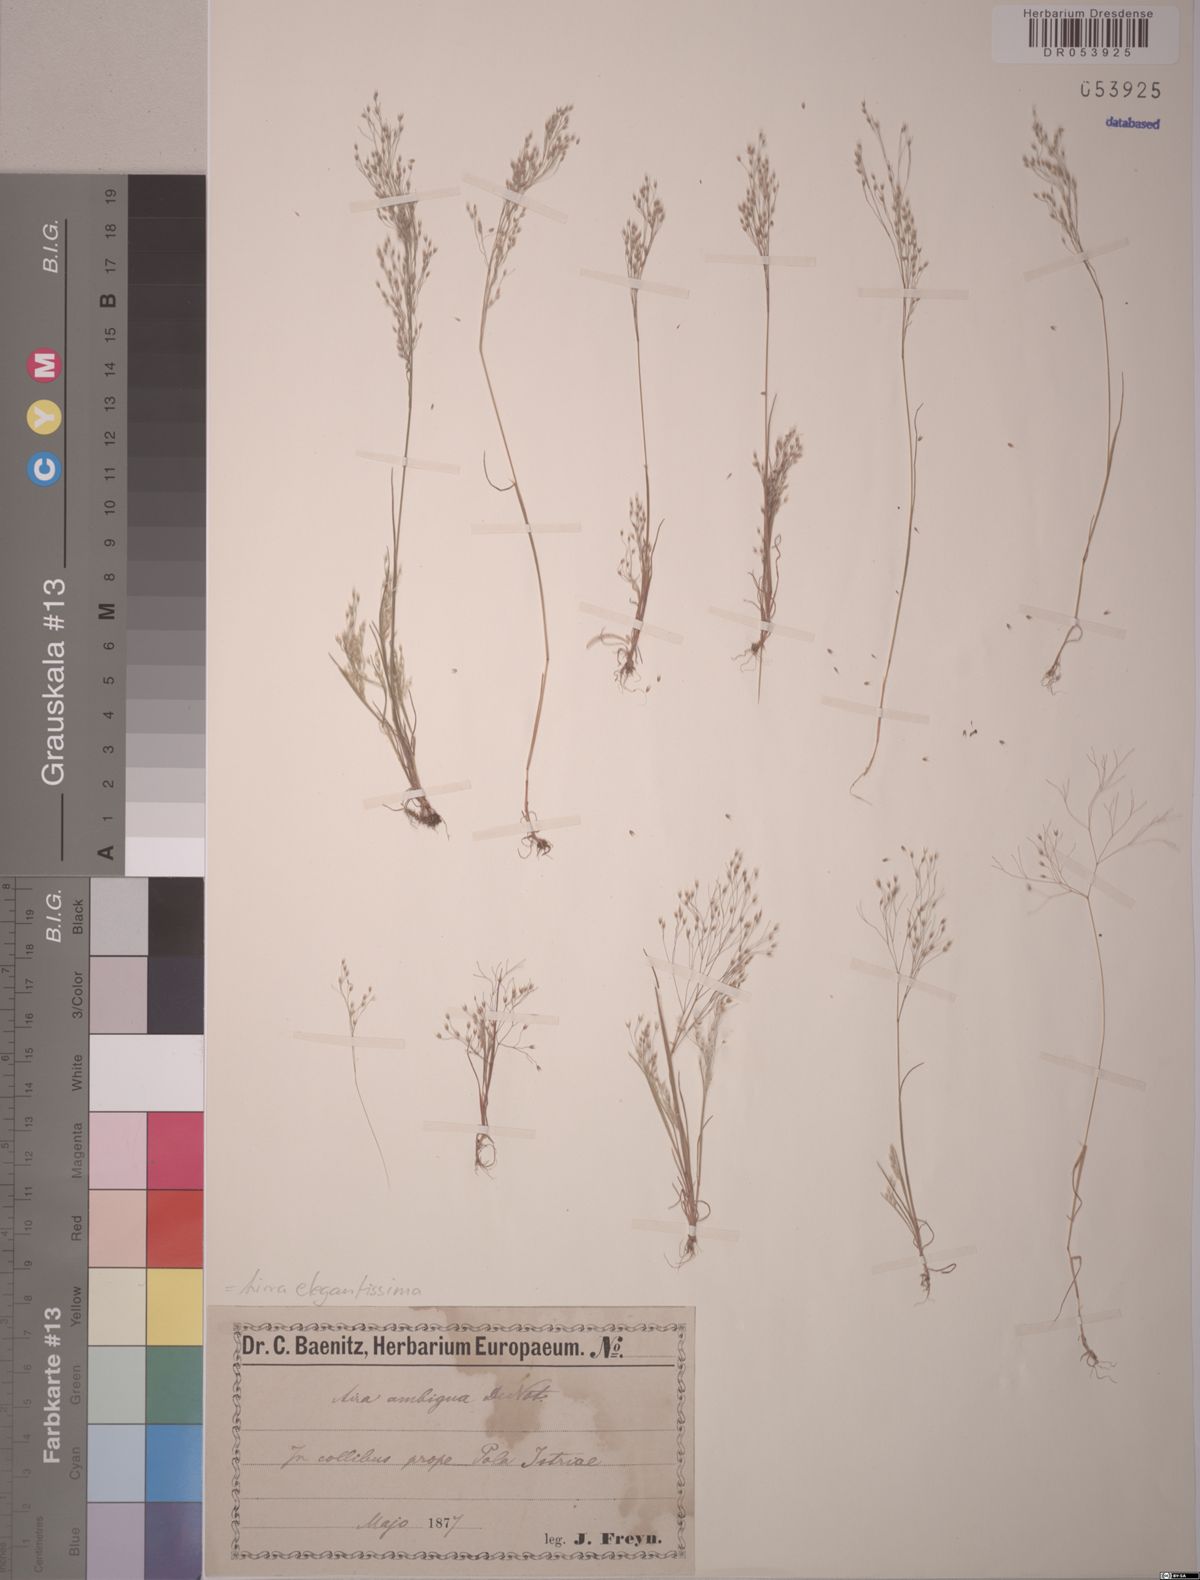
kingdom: Plantae
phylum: Tracheophyta
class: Liliopsida
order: Poales
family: Poaceae
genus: Aira
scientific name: Aira elegans
